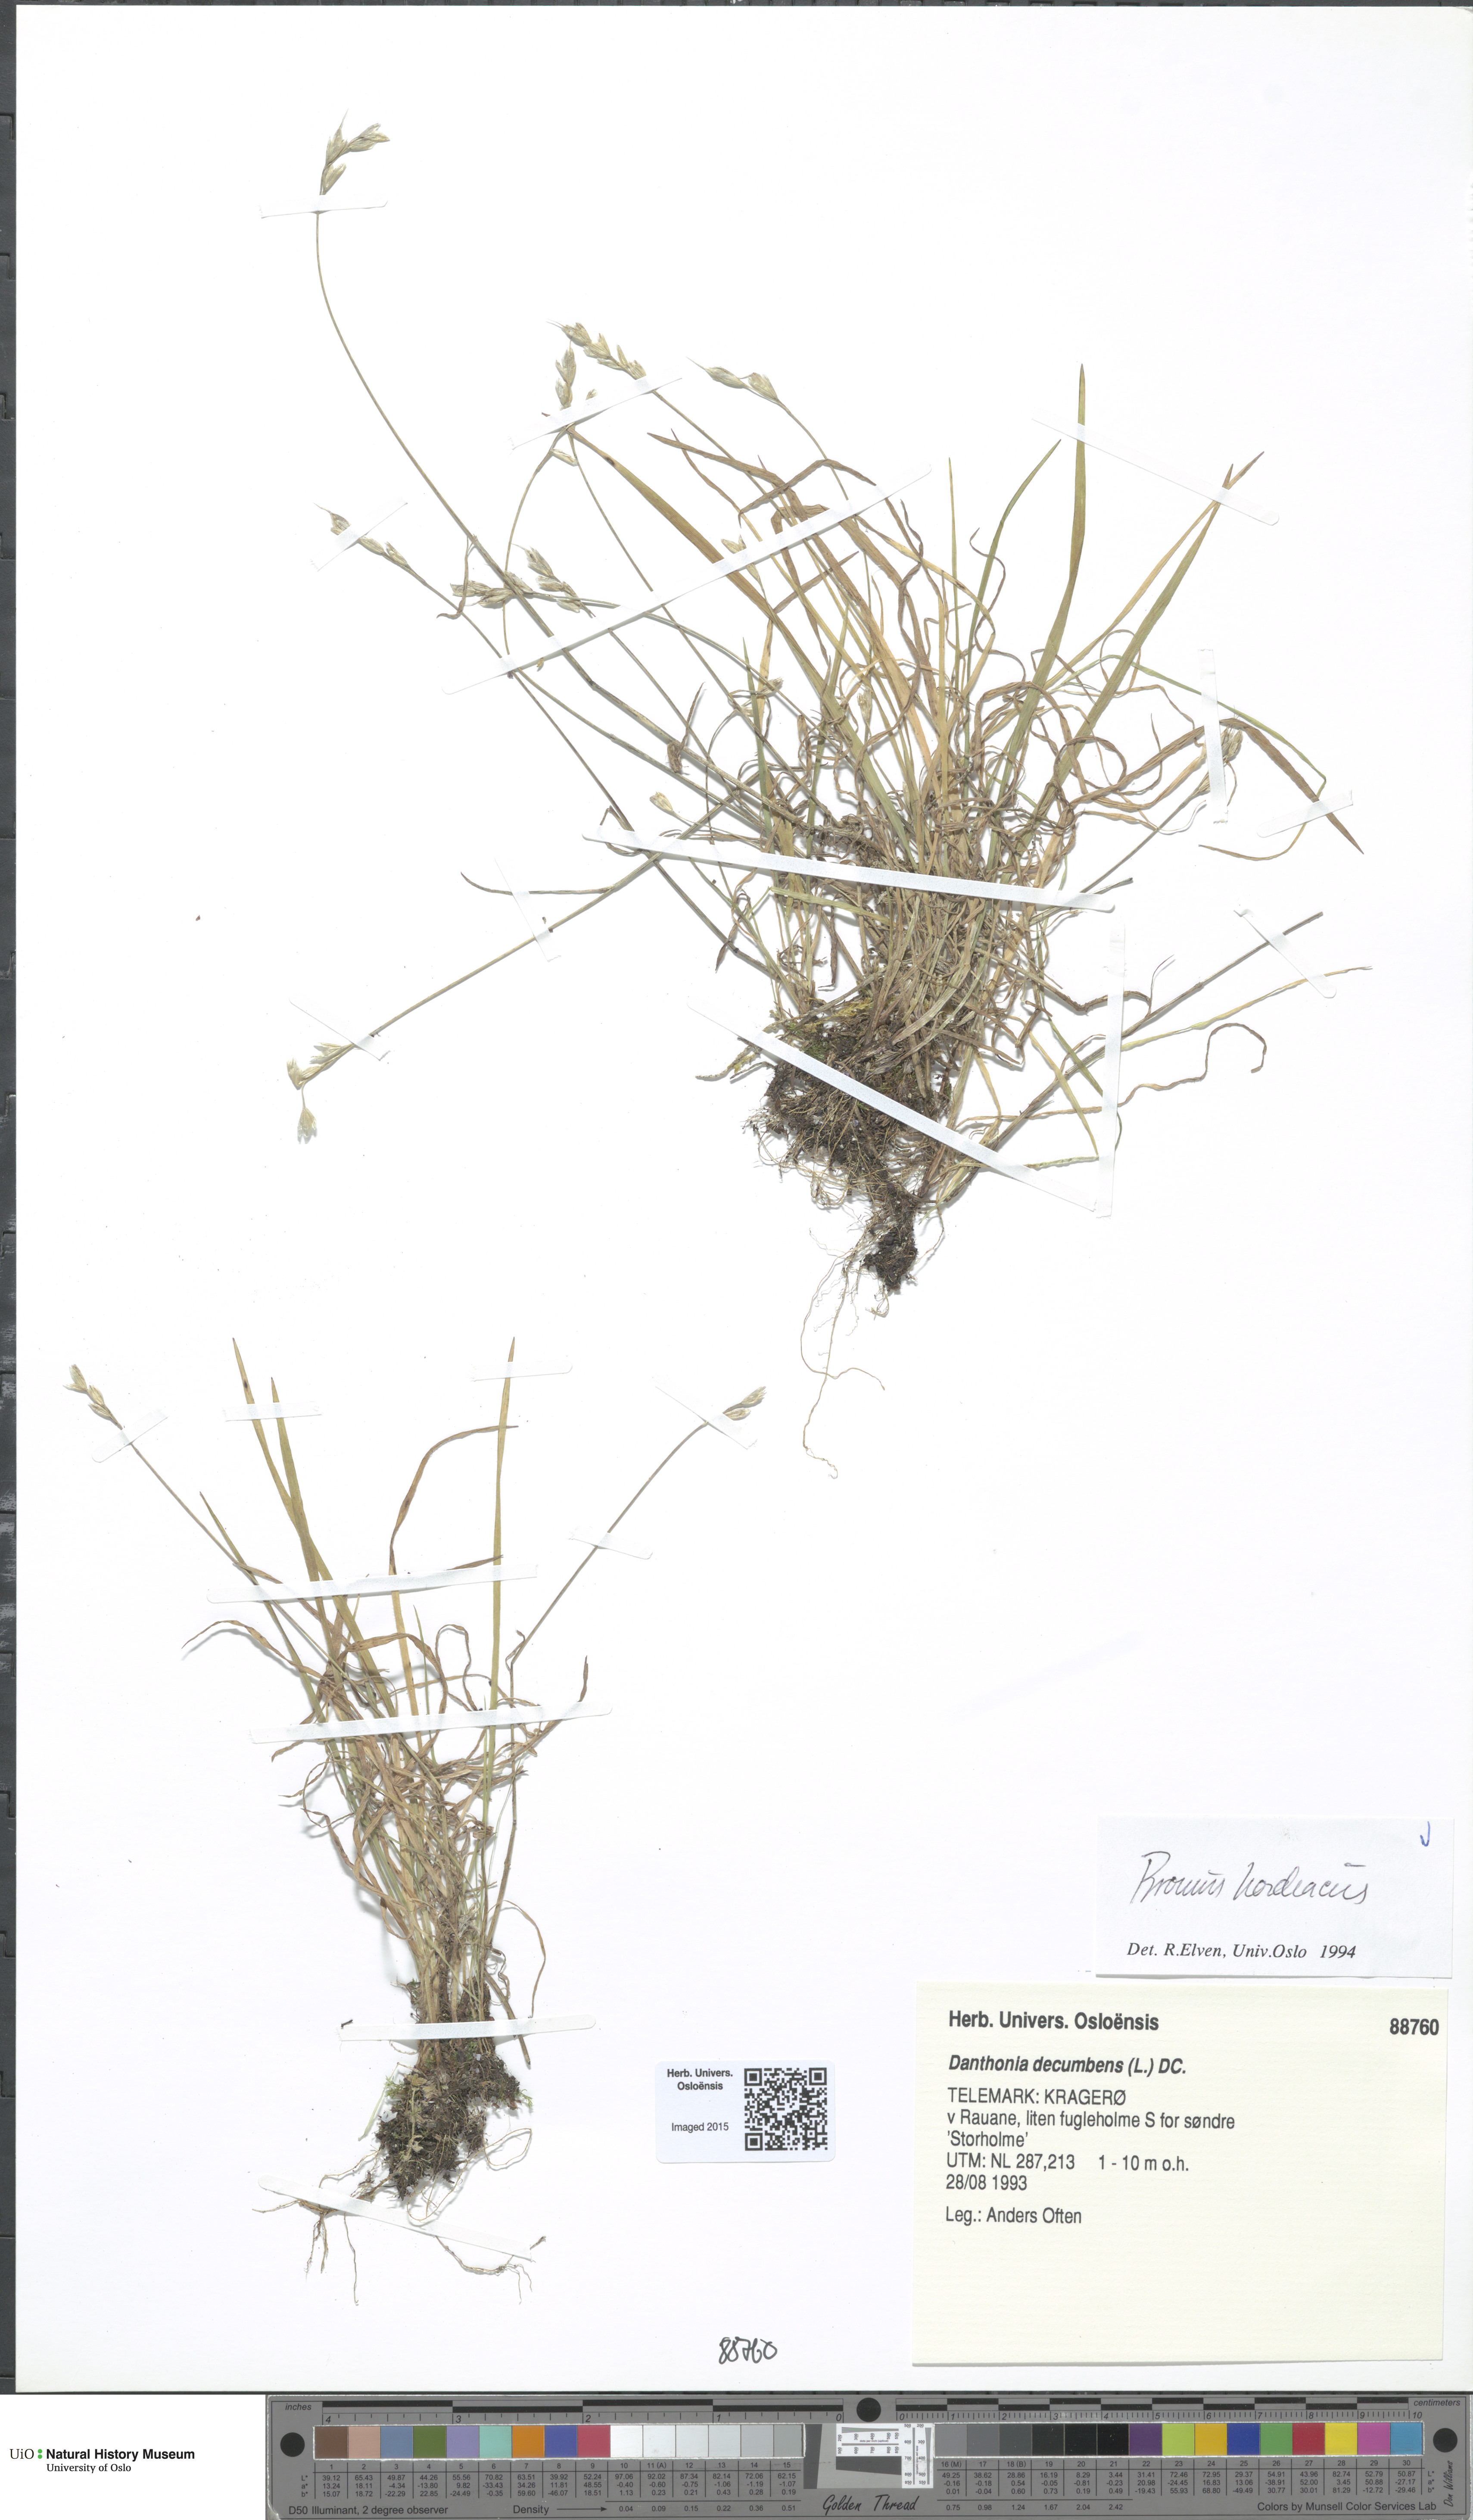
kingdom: Plantae
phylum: Tracheophyta
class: Liliopsida
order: Poales
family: Poaceae
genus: Bromus
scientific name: Bromus hordeaceus
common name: Soft brome
